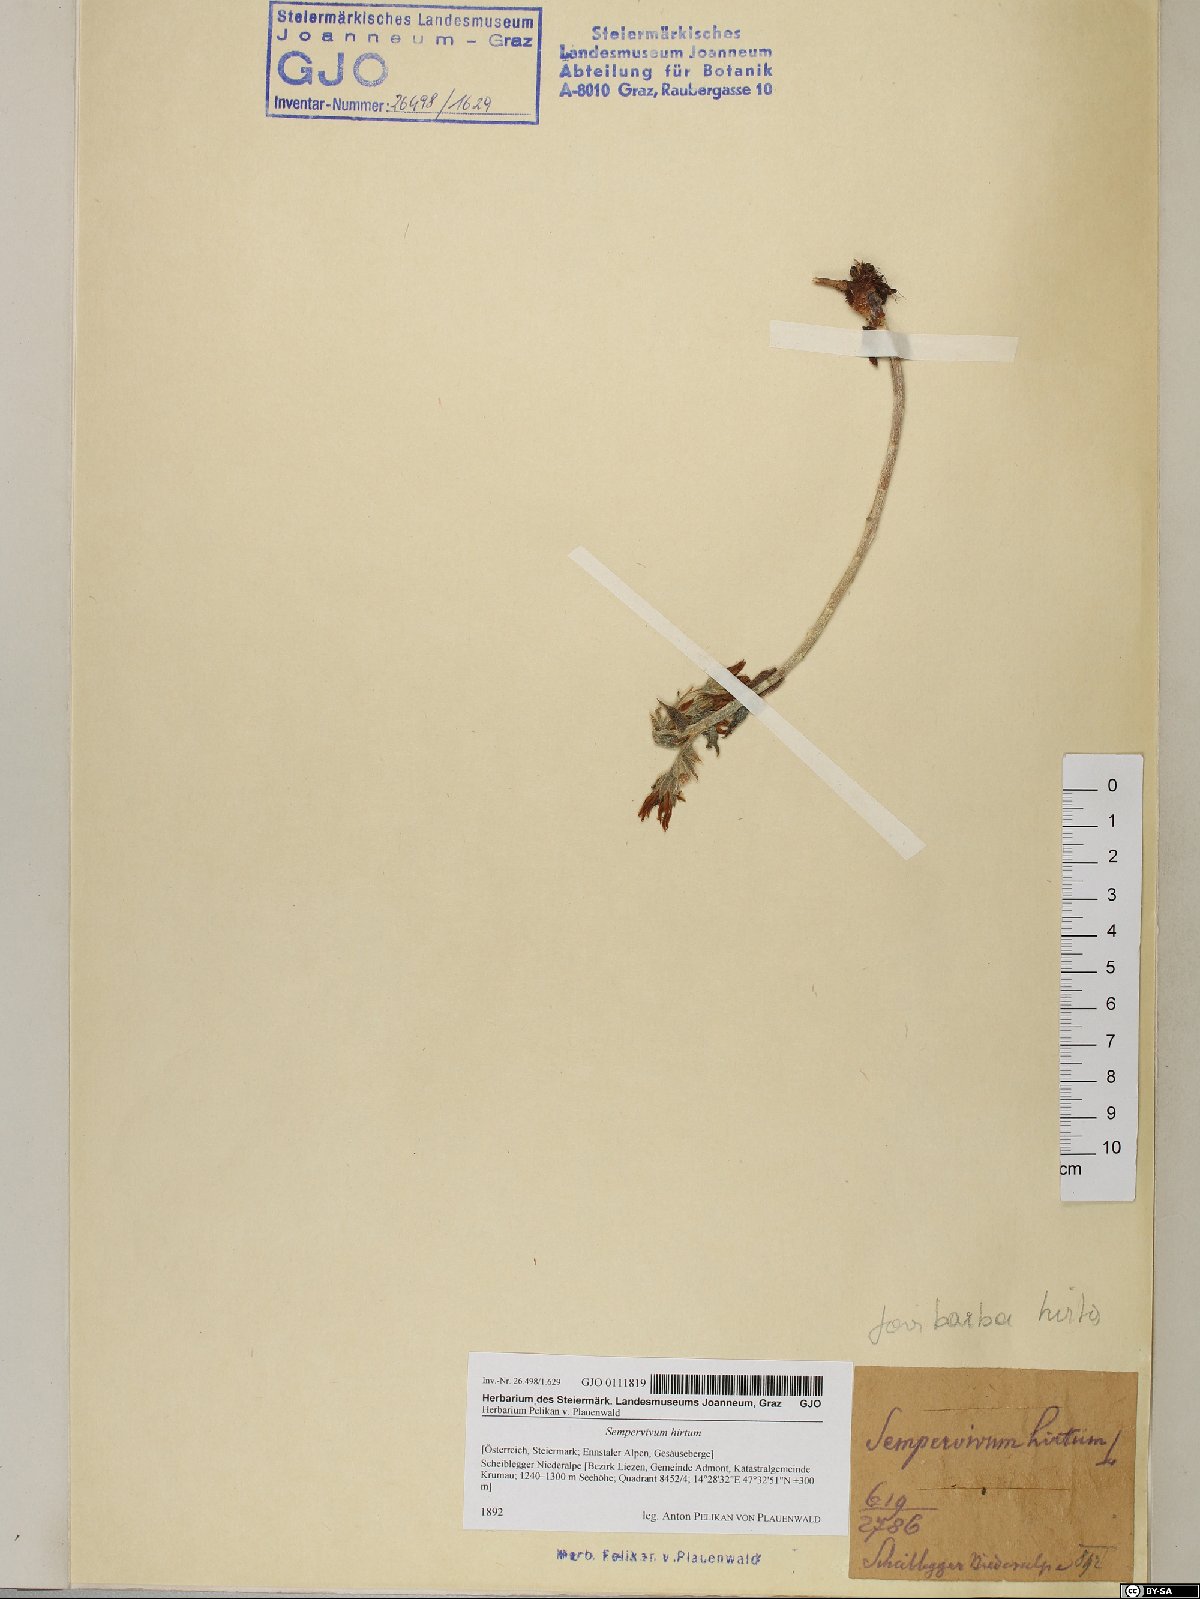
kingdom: Plantae
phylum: Tracheophyta
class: Magnoliopsida
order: Saxifragales
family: Crassulaceae
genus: Sempervivum
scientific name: Sempervivum globiferum
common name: Rolling hen-and-chicks
